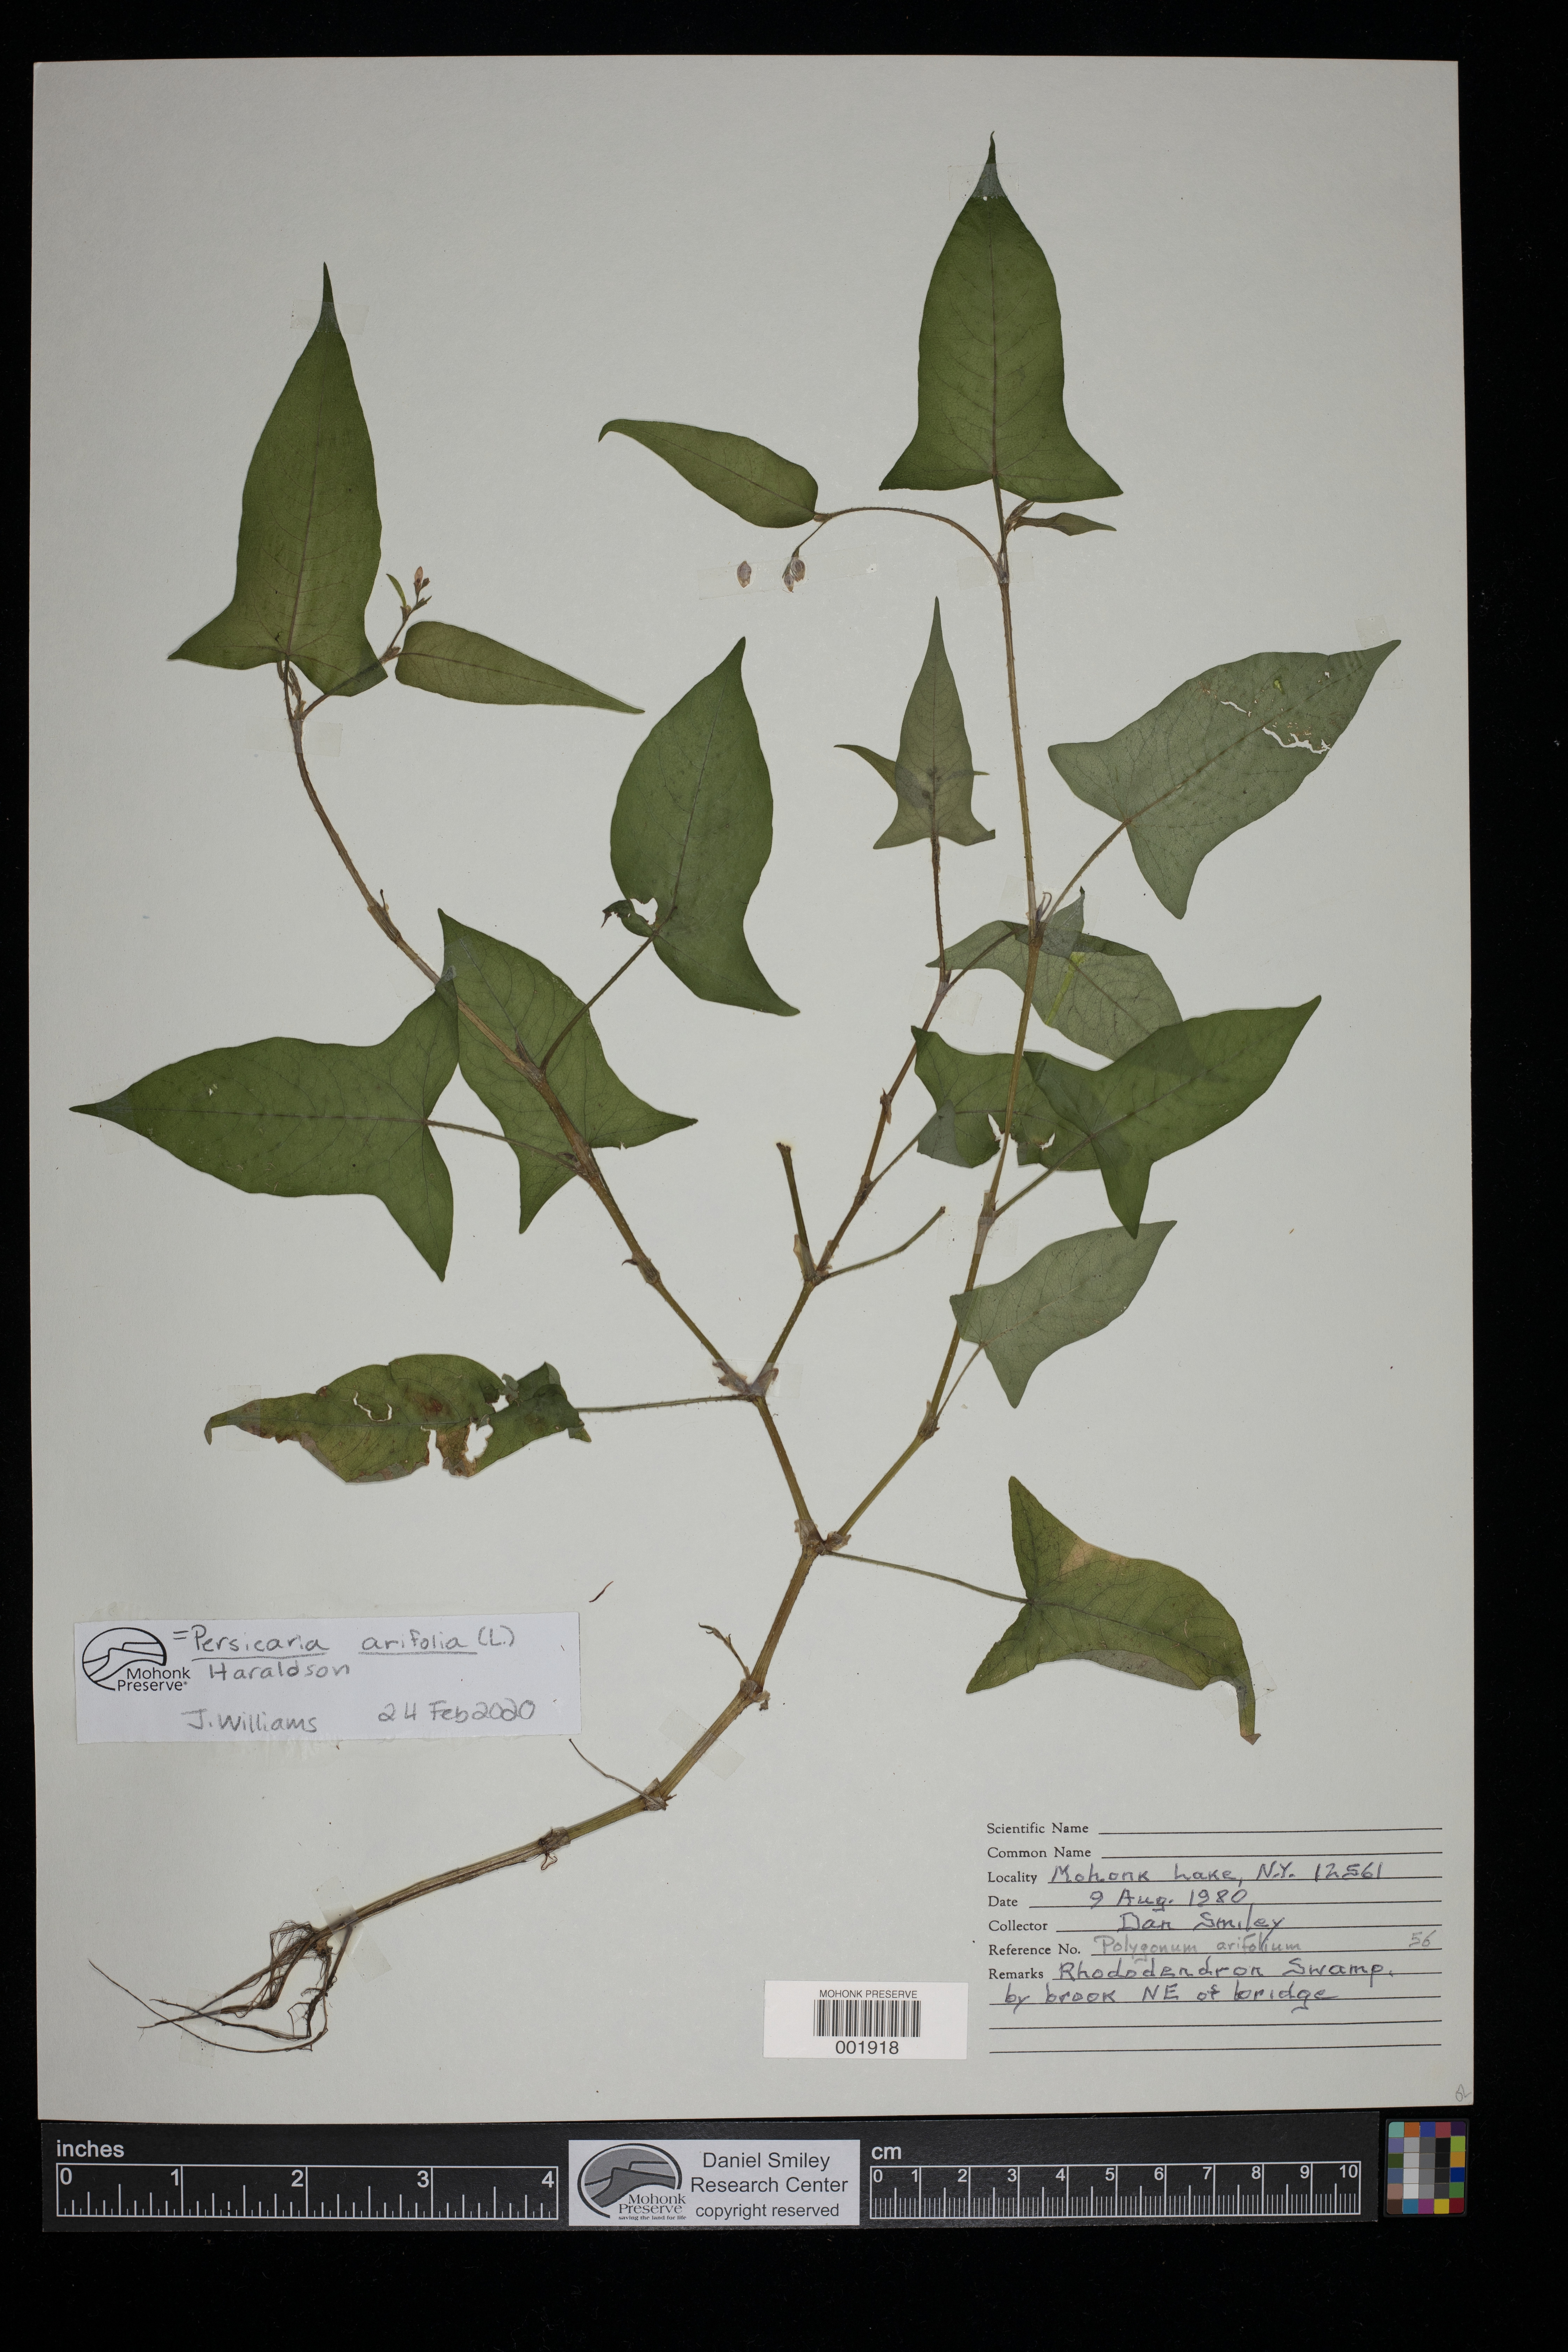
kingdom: Plantae
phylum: Tracheophyta
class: Magnoliopsida
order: Caryophyllales
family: Polygonaceae
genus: Persicaria
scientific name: Persicaria arifolia
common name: Halberd-leaved tear-thumb
